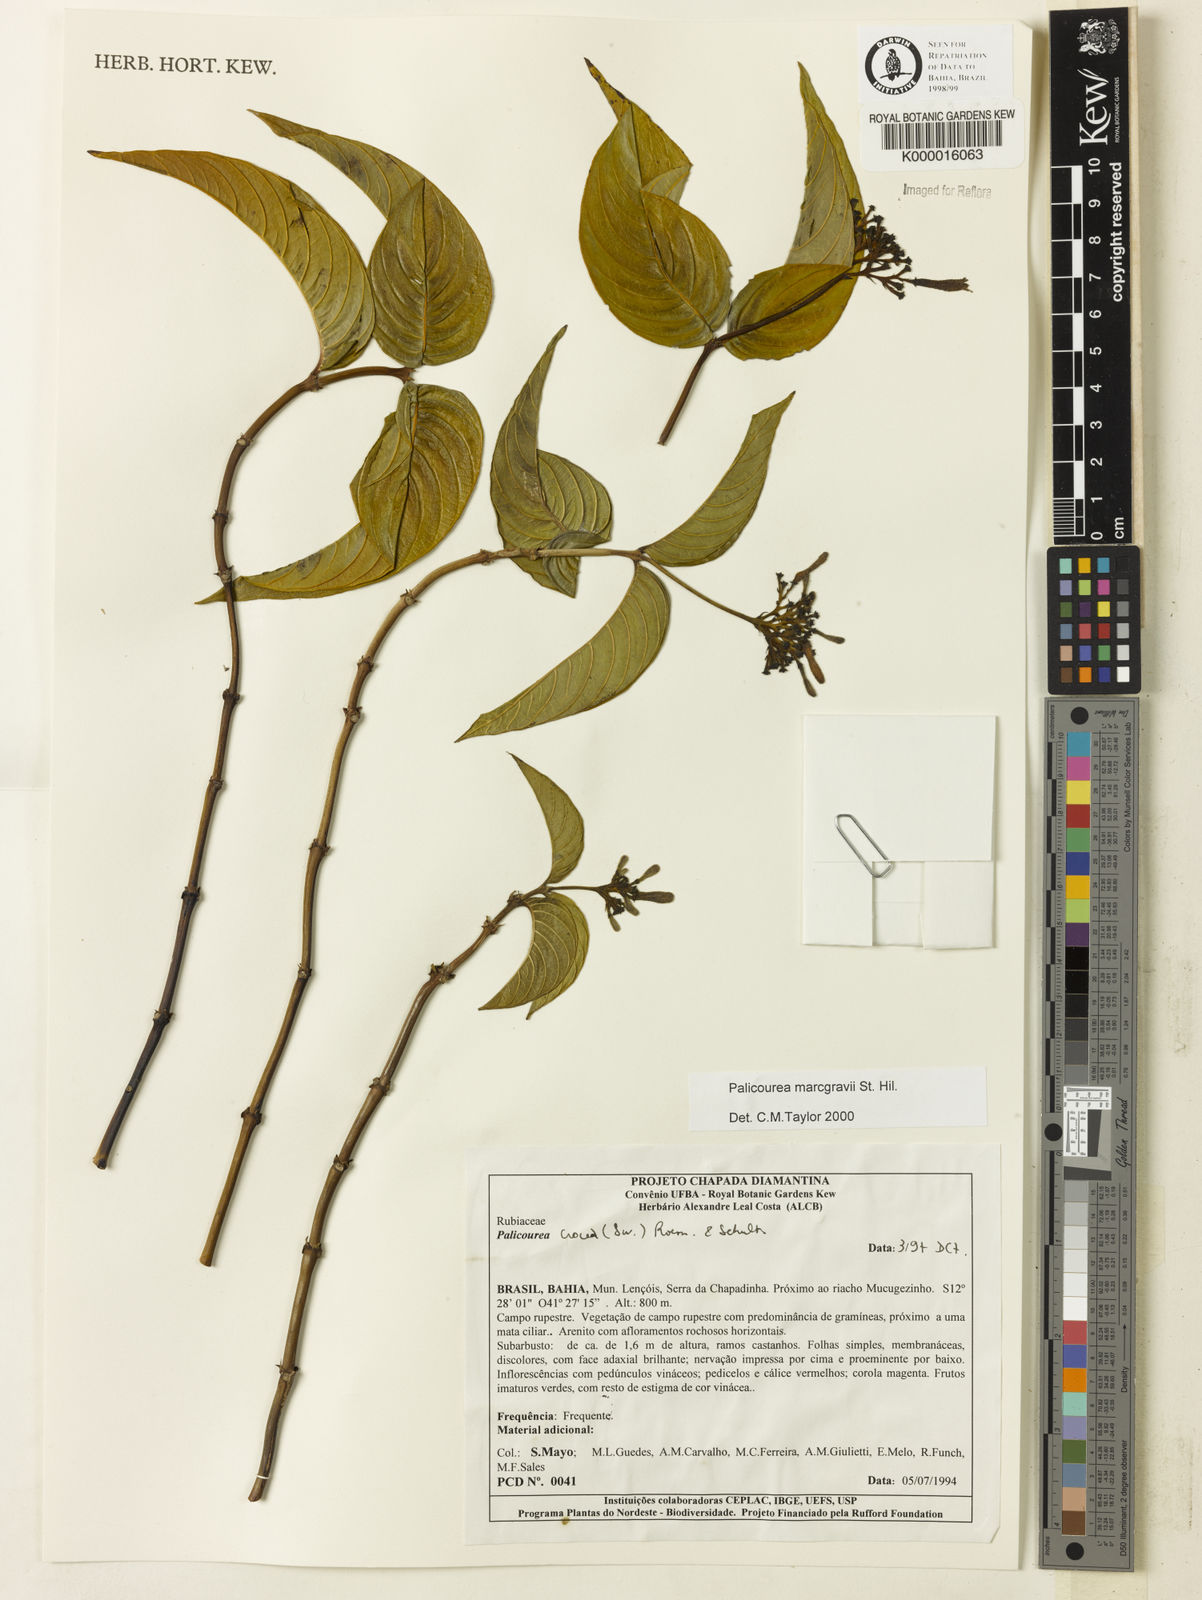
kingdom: Plantae
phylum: Tracheophyta
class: Magnoliopsida
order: Gentianales
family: Rubiaceae
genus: Palicourea
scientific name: Palicourea marcgravii
